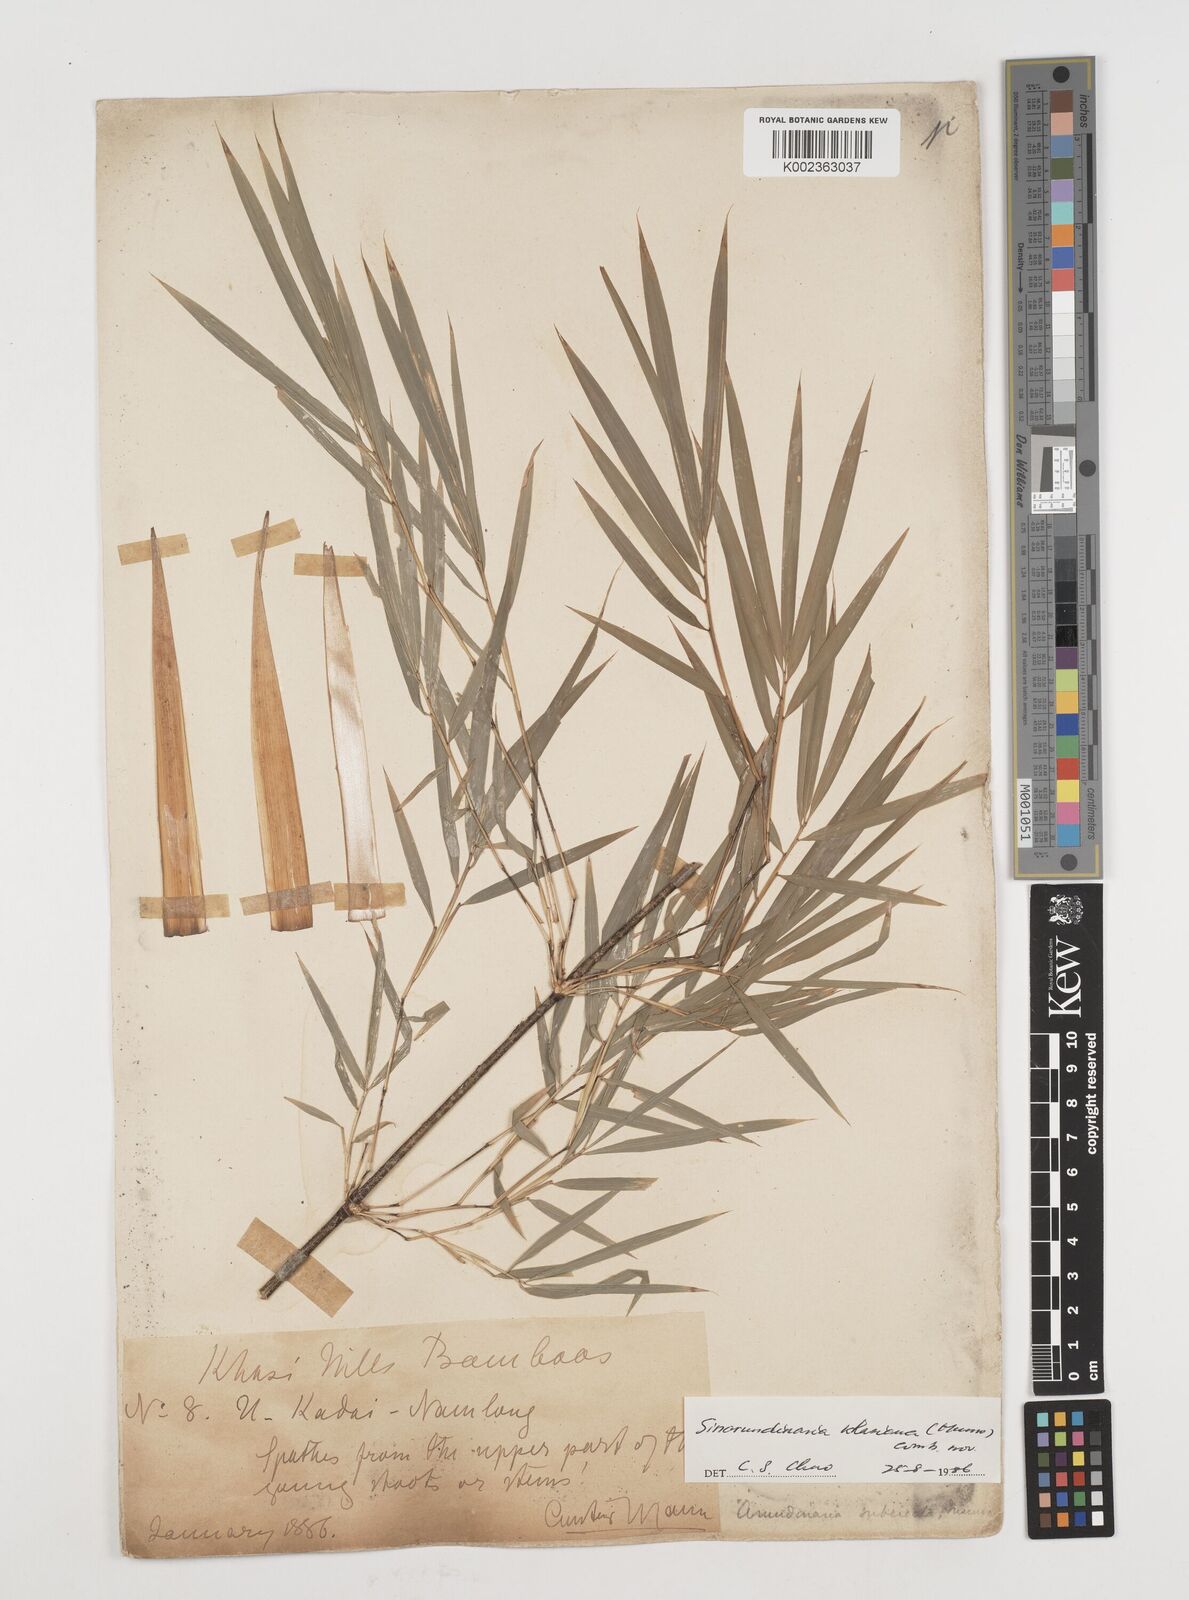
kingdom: Plantae
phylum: Tracheophyta
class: Liliopsida
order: Poales
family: Poaceae
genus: Drepanostachyum
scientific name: Drepanostachyum khasianum
